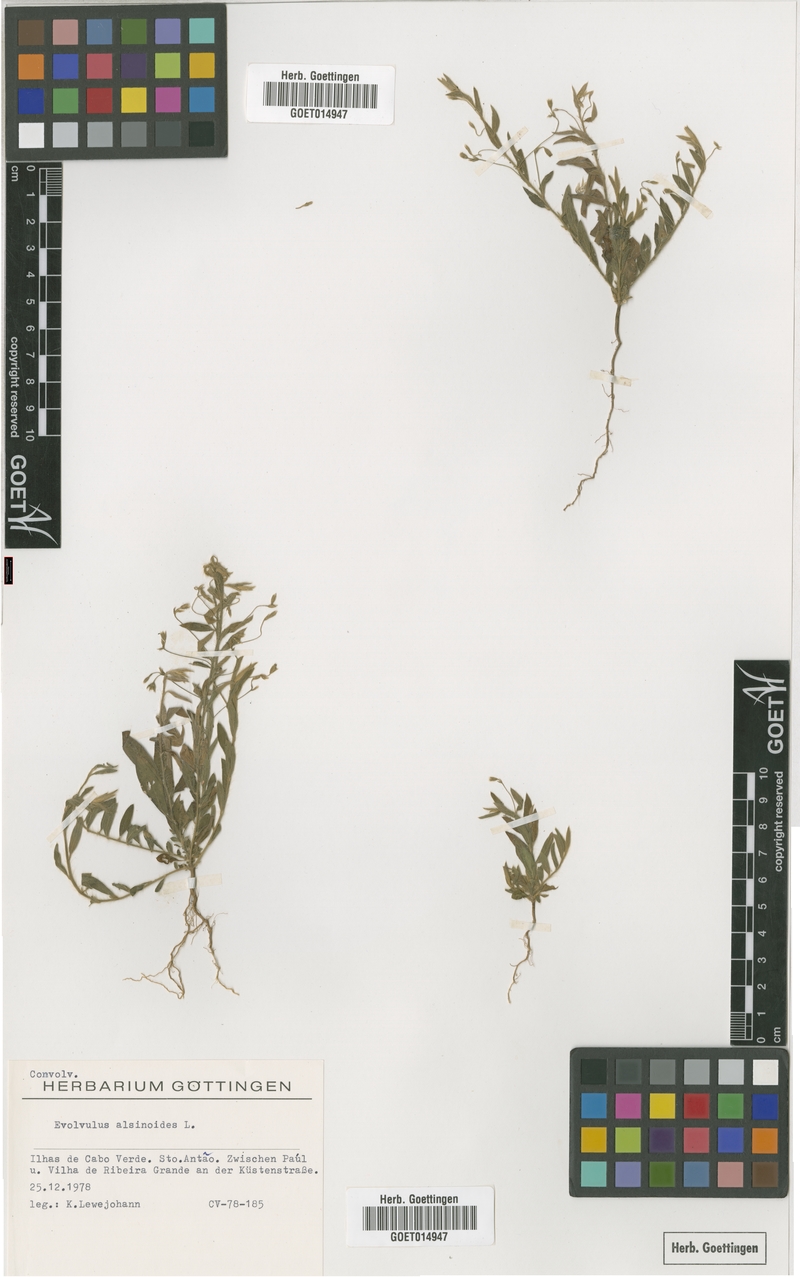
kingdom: Plantae
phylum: Tracheophyta
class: Magnoliopsida
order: Solanales
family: Convolvulaceae
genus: Evolvulus
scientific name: Evolvulus alsinoides
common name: Slender dwarf morning-glory
